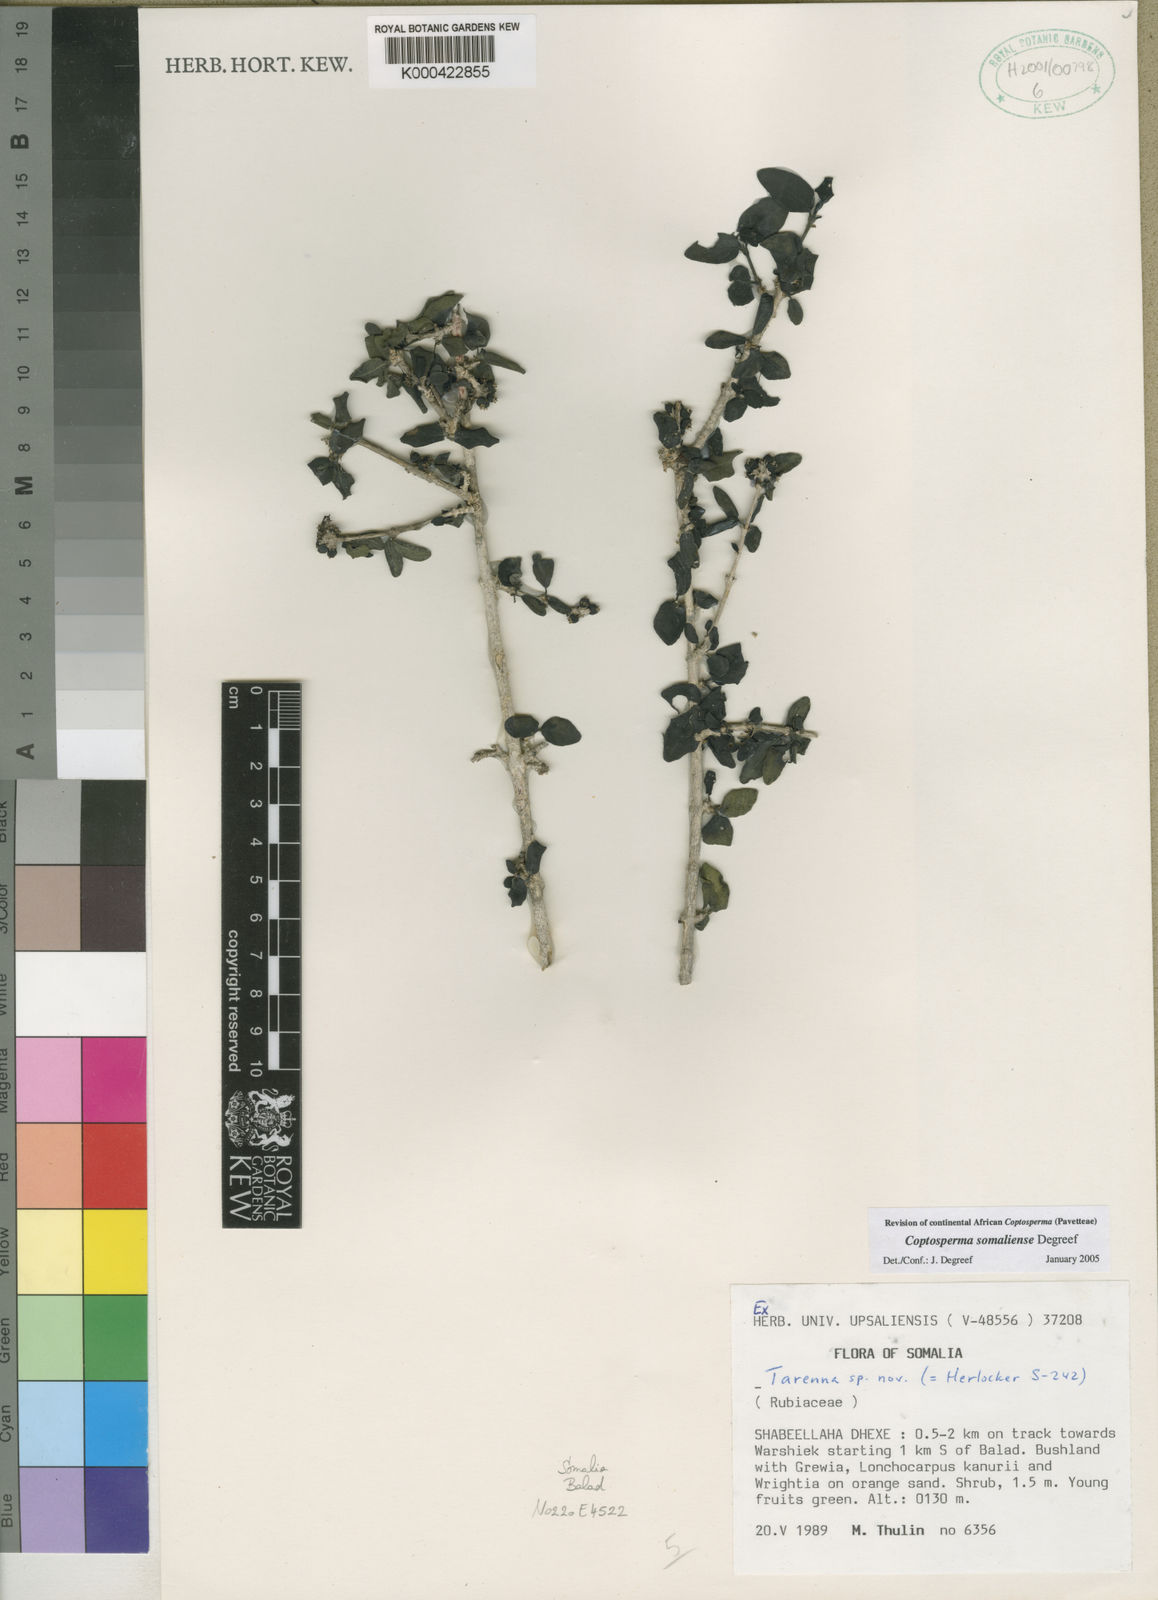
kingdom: Plantae
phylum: Tracheophyta
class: Magnoliopsida
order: Gentianales
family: Rubiaceae
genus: Coptosperma
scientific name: Coptosperma somaliense
